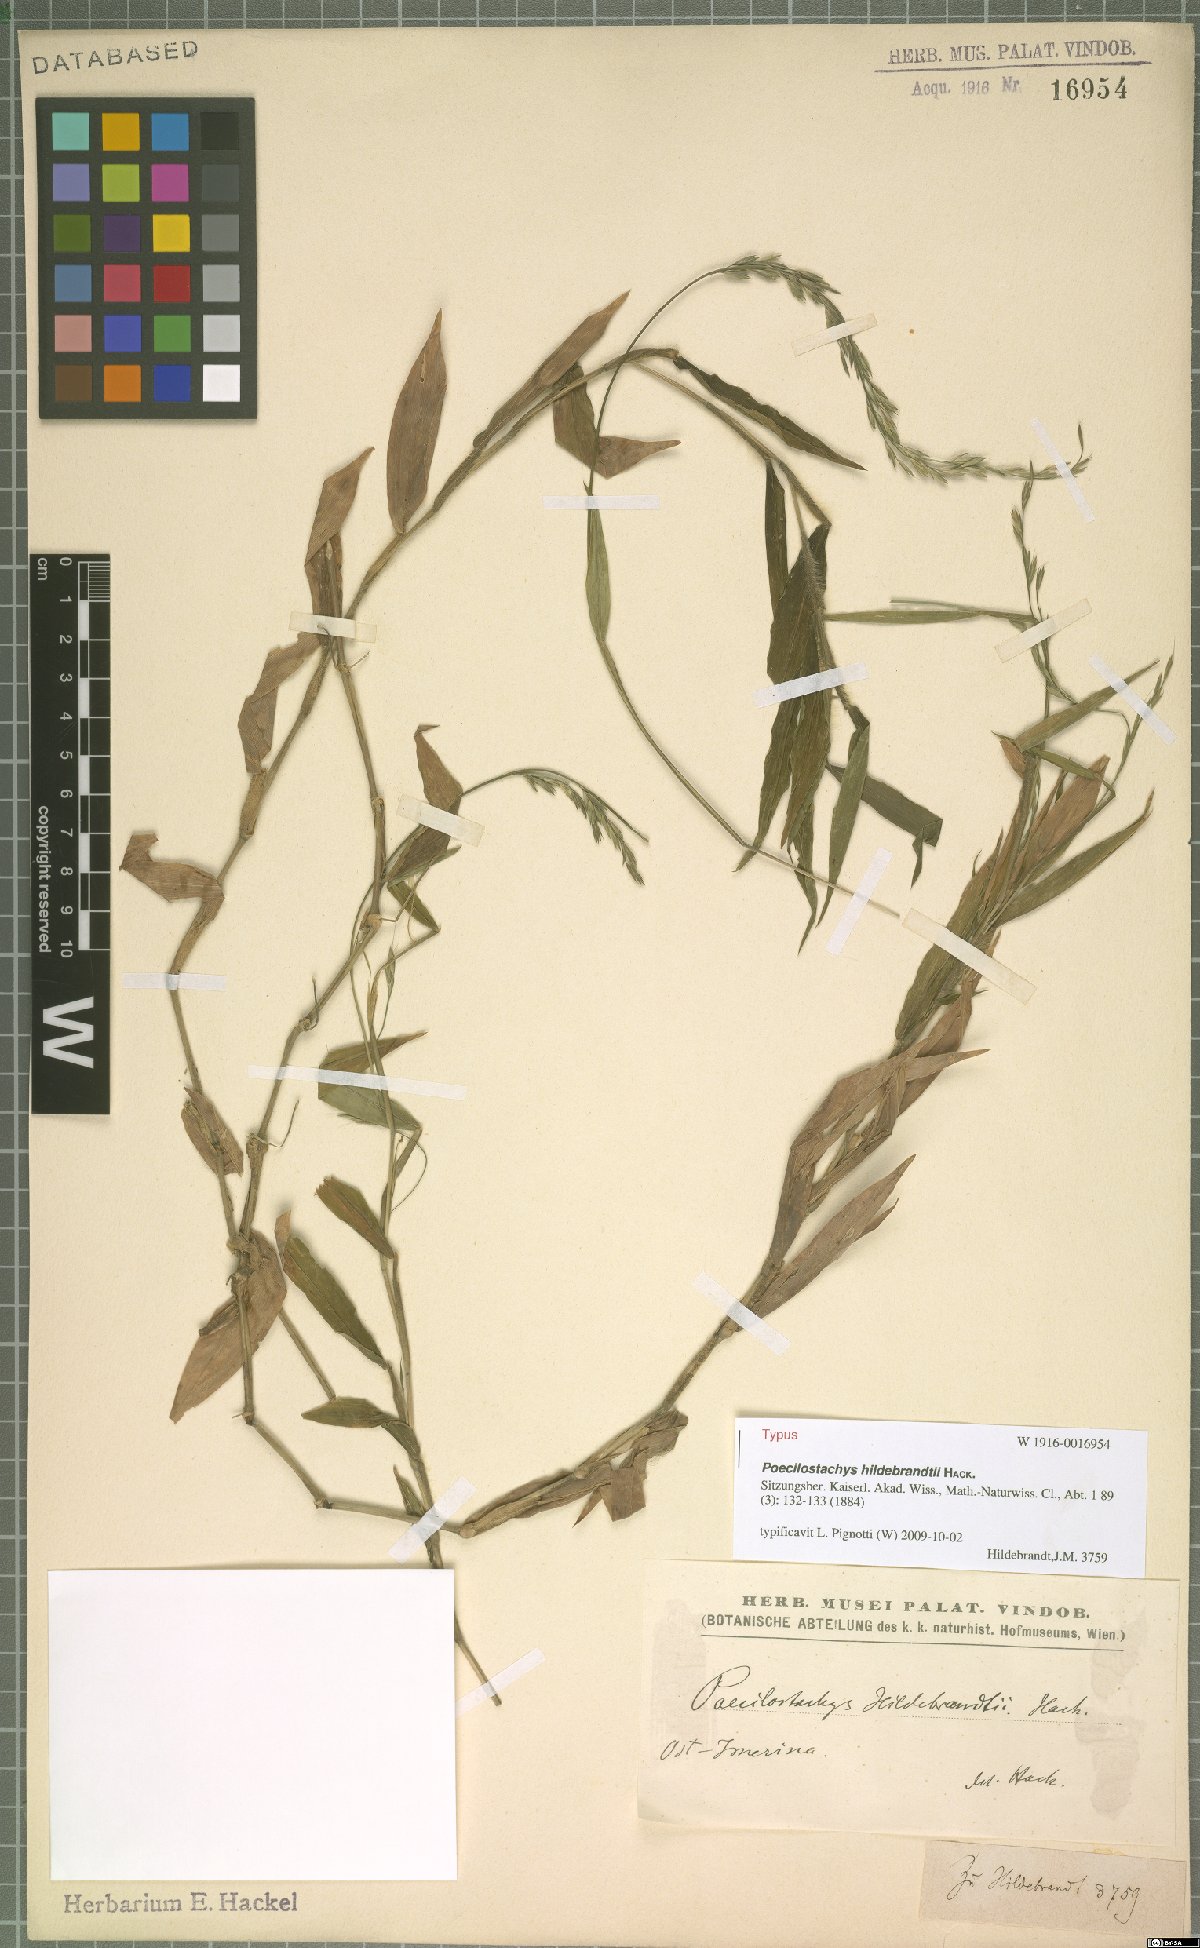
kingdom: Plantae
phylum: Tracheophyta
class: Liliopsida
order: Poales
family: Poaceae
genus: Poecilostachys
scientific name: Poecilostachys hildebrandtii
